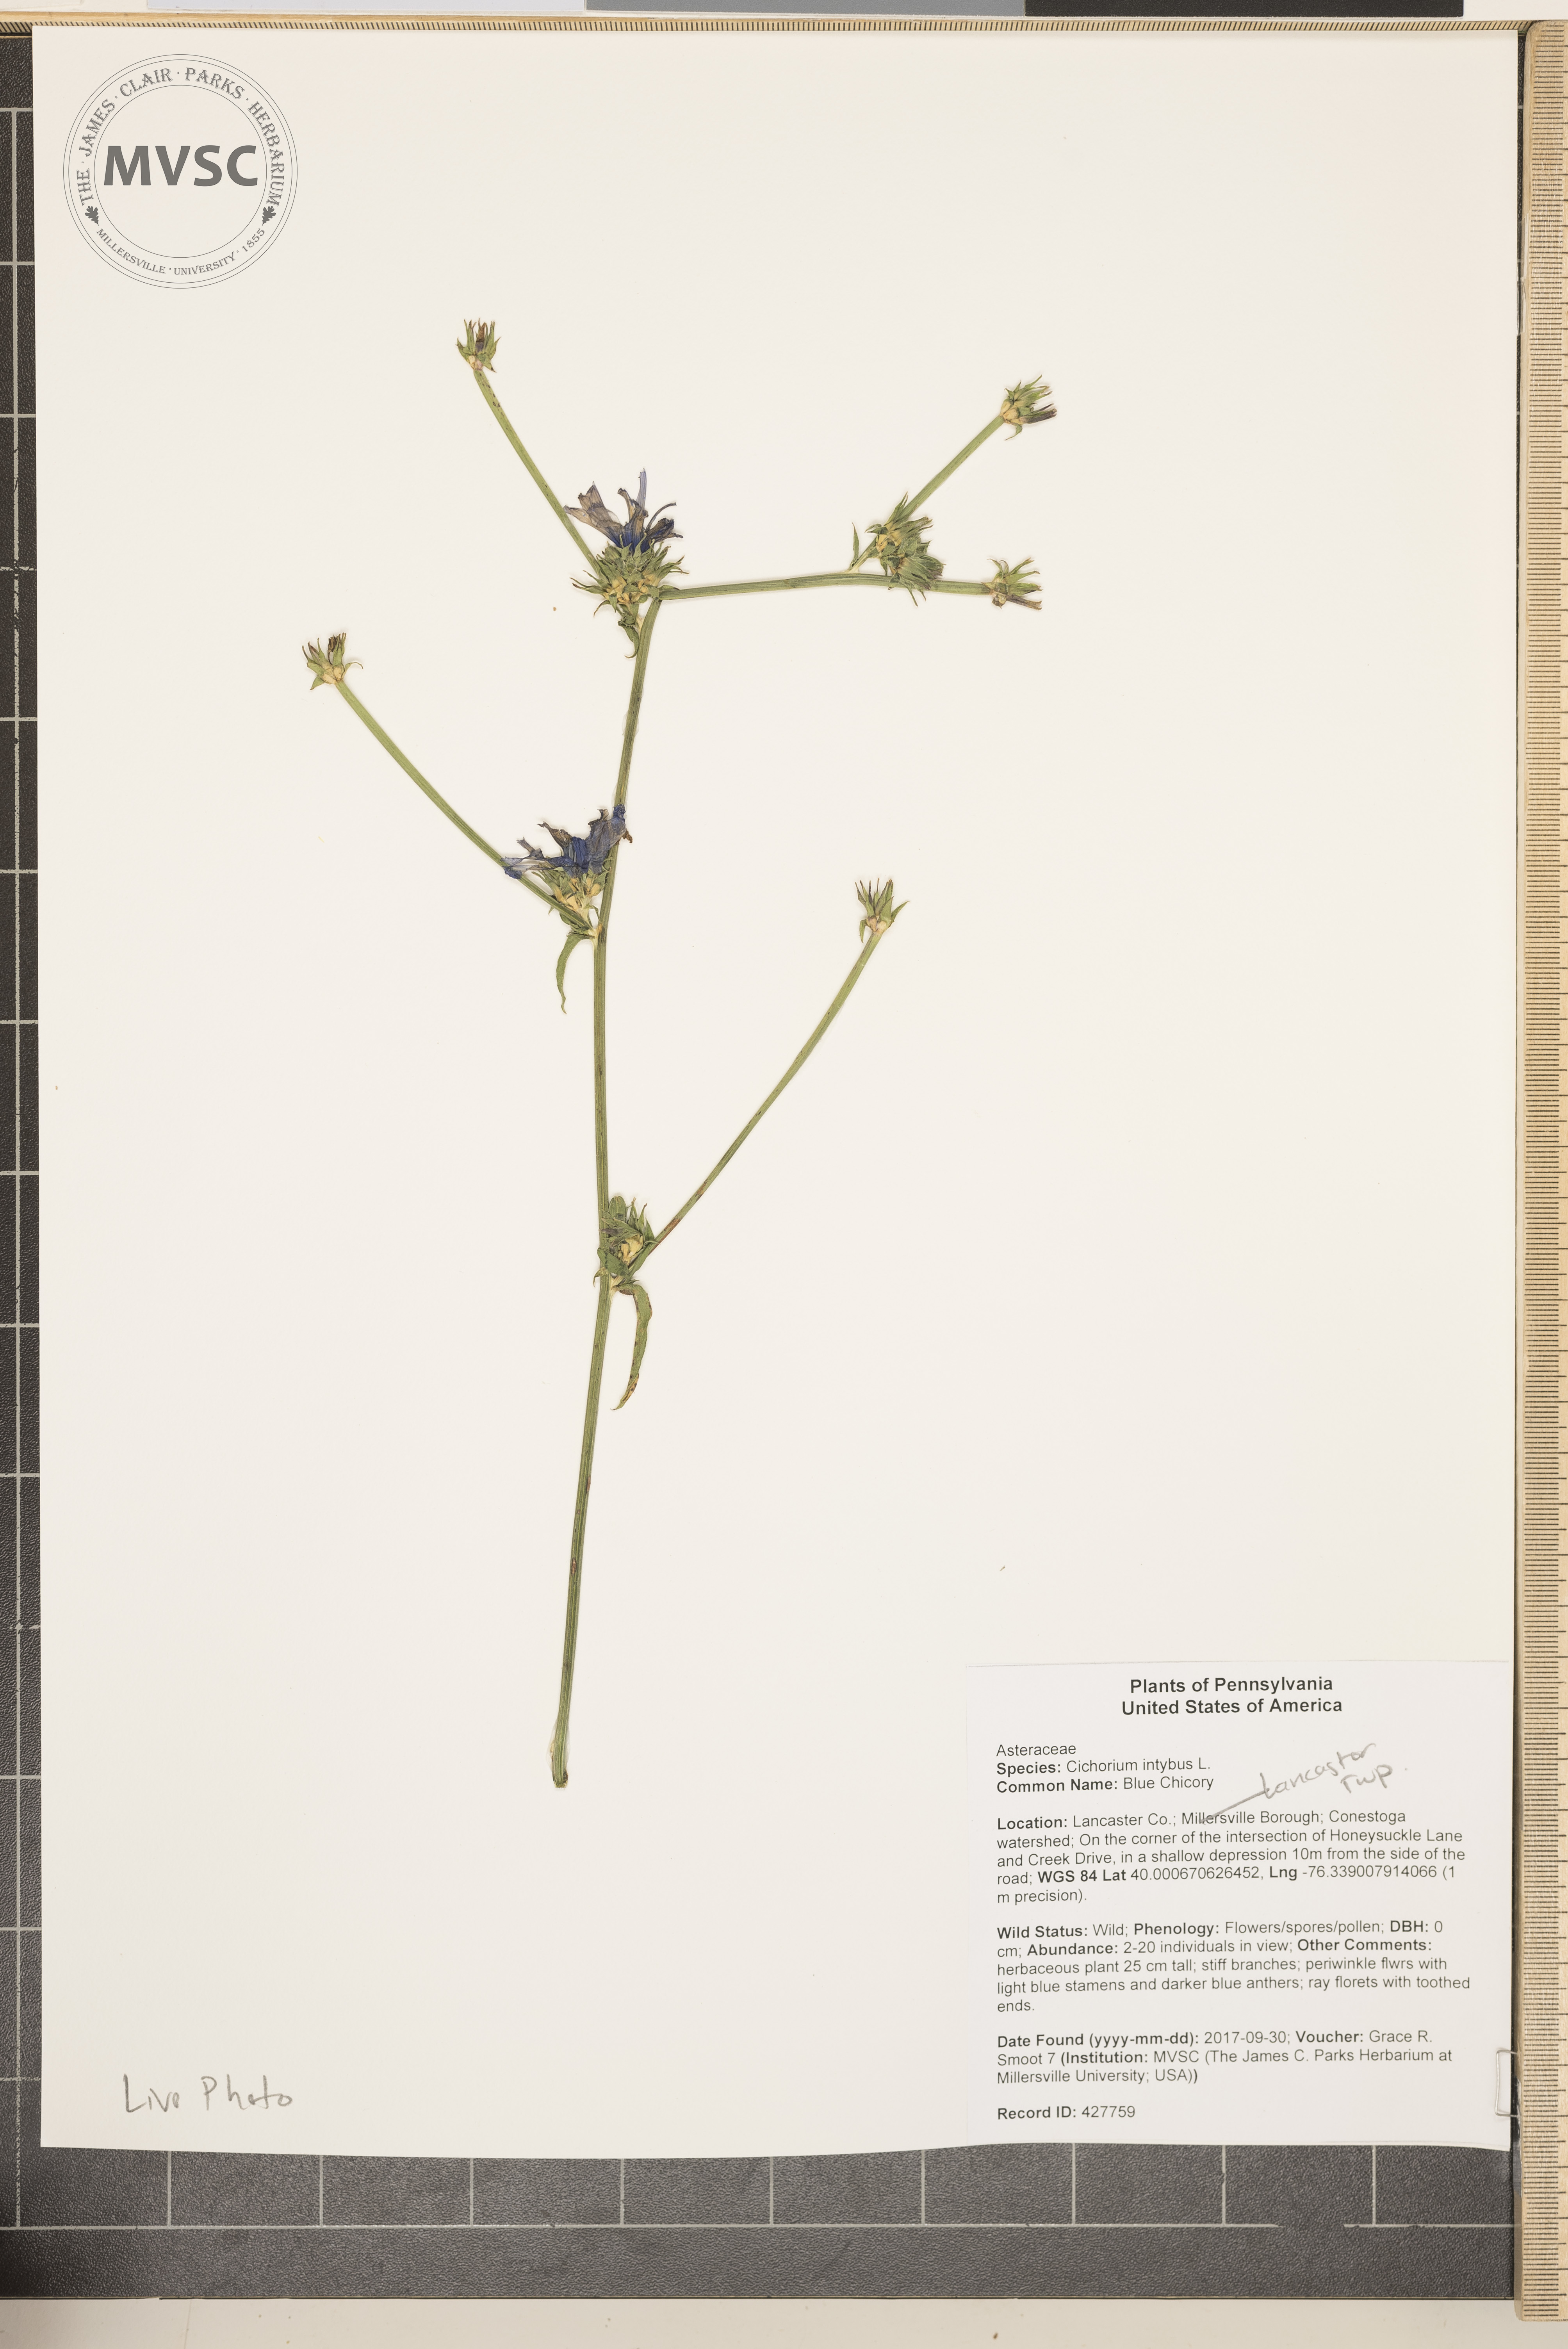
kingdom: Plantae
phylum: Tracheophyta
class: Magnoliopsida
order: Asterales
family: Asteraceae
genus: Cichorium
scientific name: Cichorium intybus
